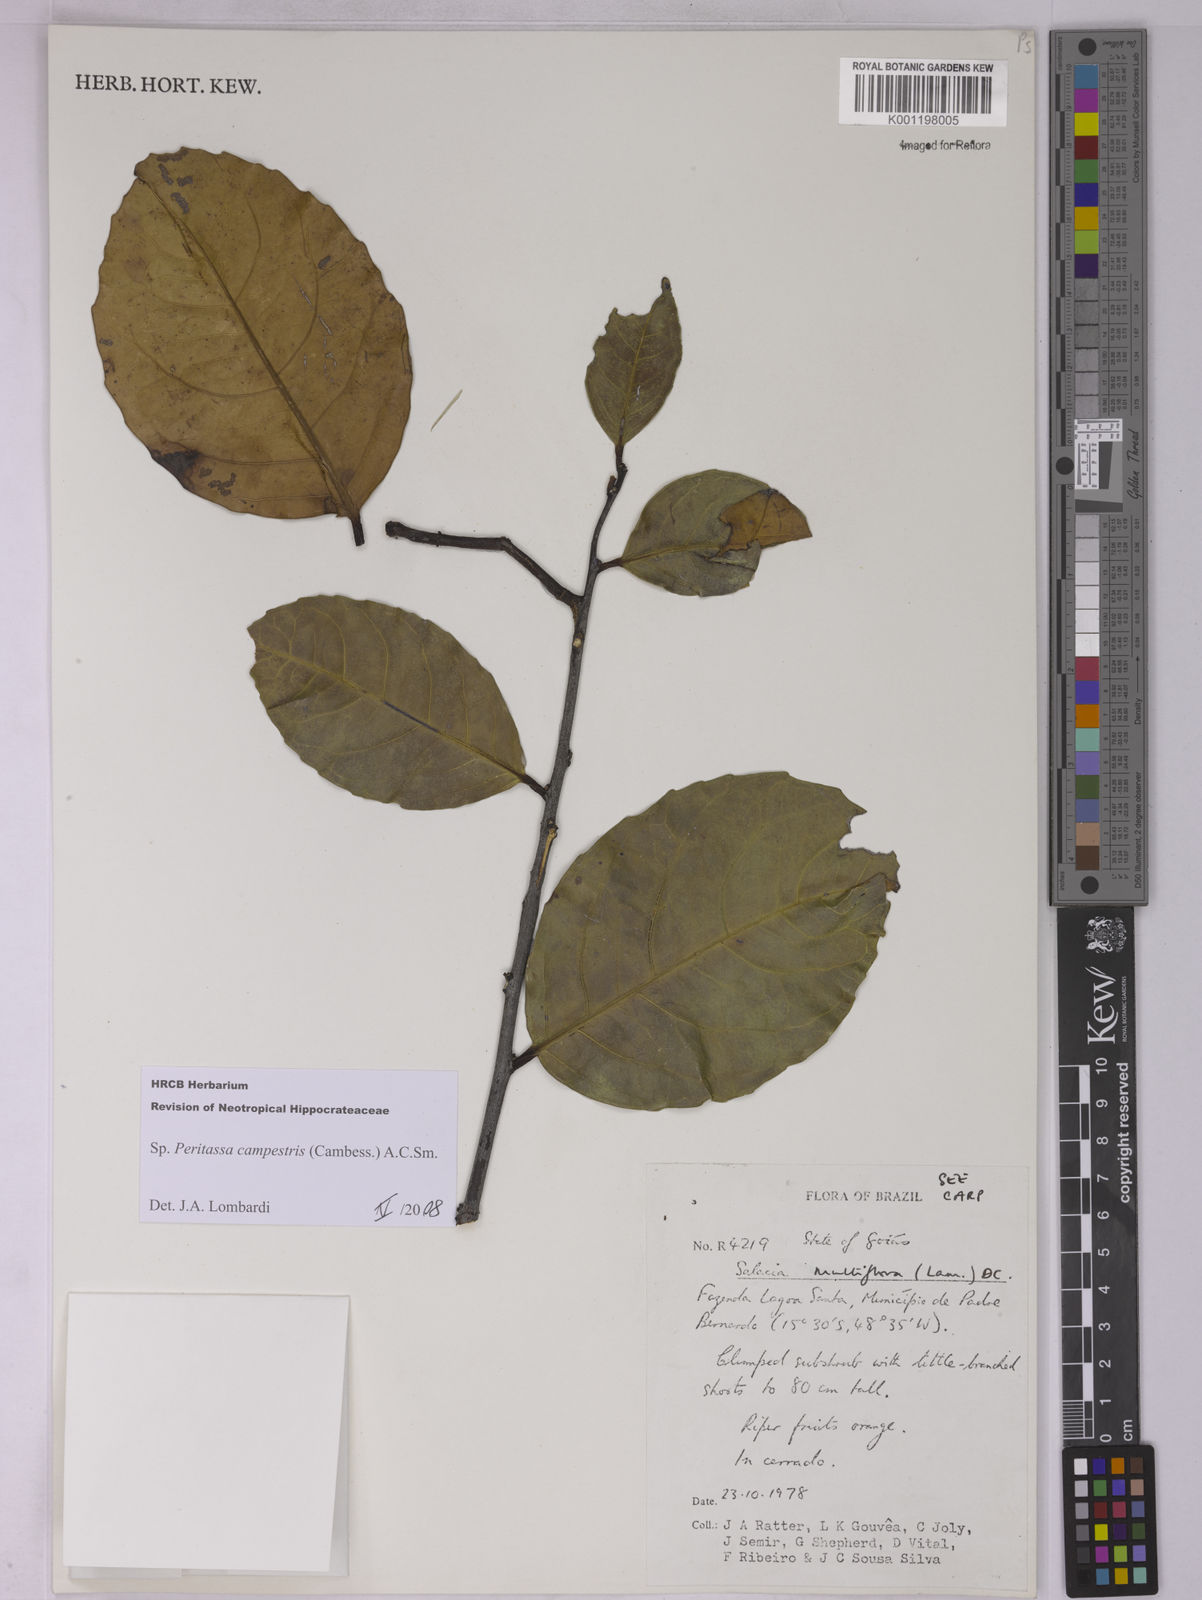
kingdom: Plantae
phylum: Tracheophyta
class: Magnoliopsida
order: Celastrales
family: Celastraceae
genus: Peritassa
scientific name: Peritassa campestris
